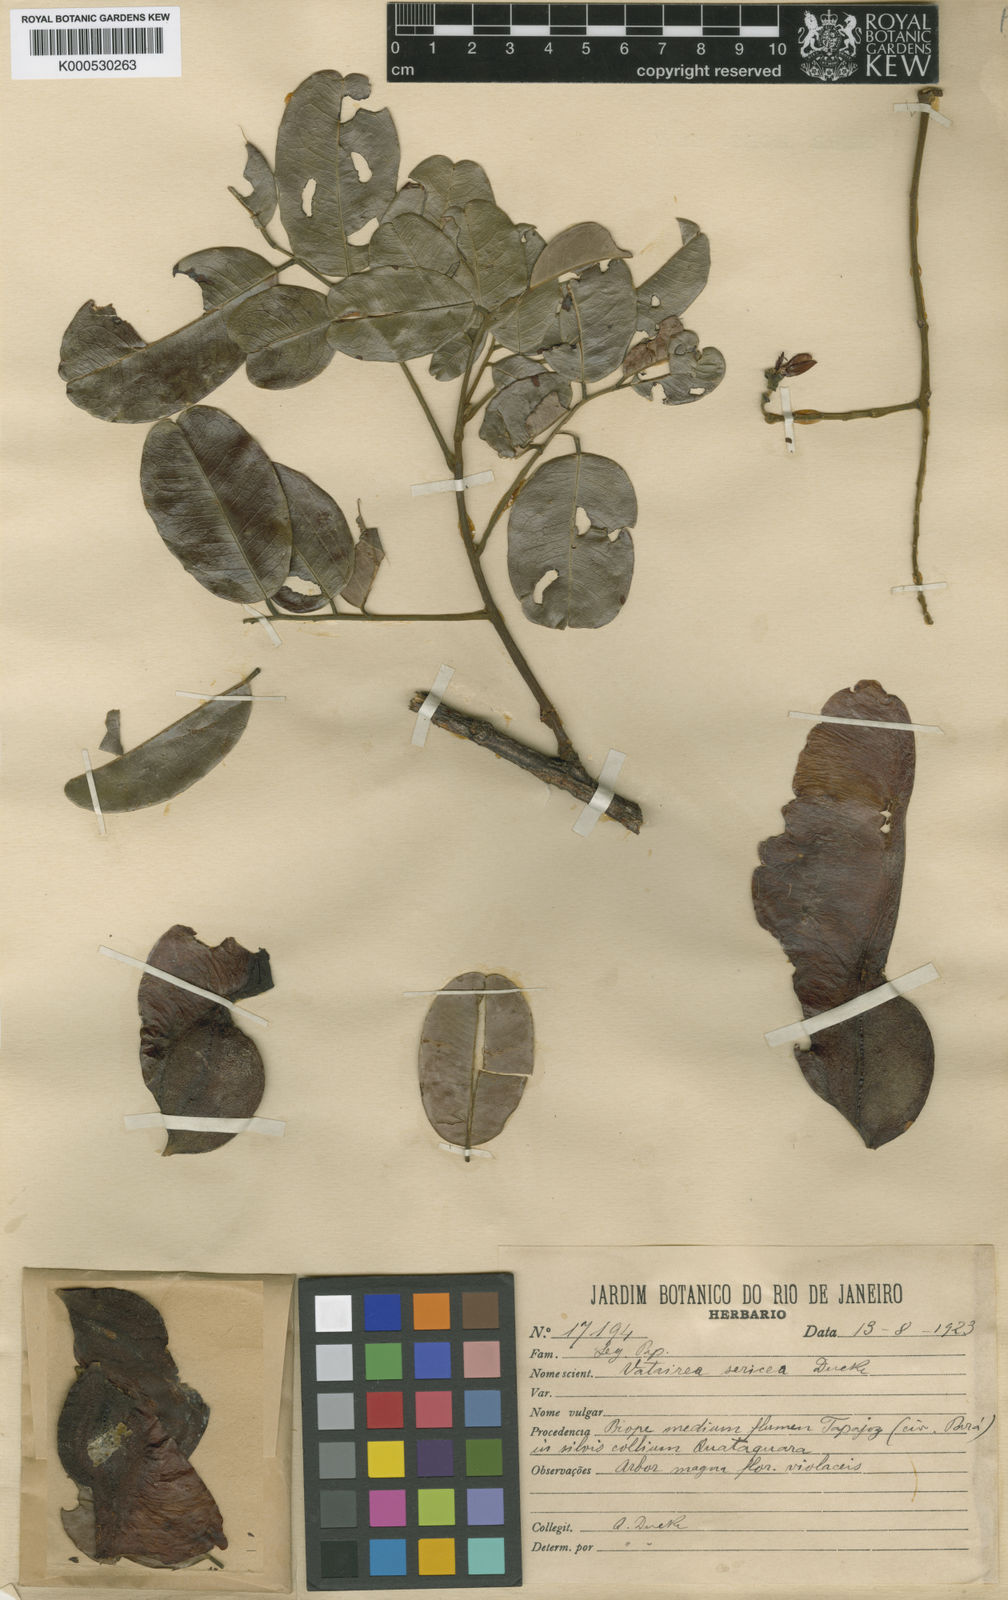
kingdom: Plantae
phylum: Tracheophyta
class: Magnoliopsida
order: Fabales
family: Fabaceae
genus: Vatairea
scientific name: Vatairea sericea
